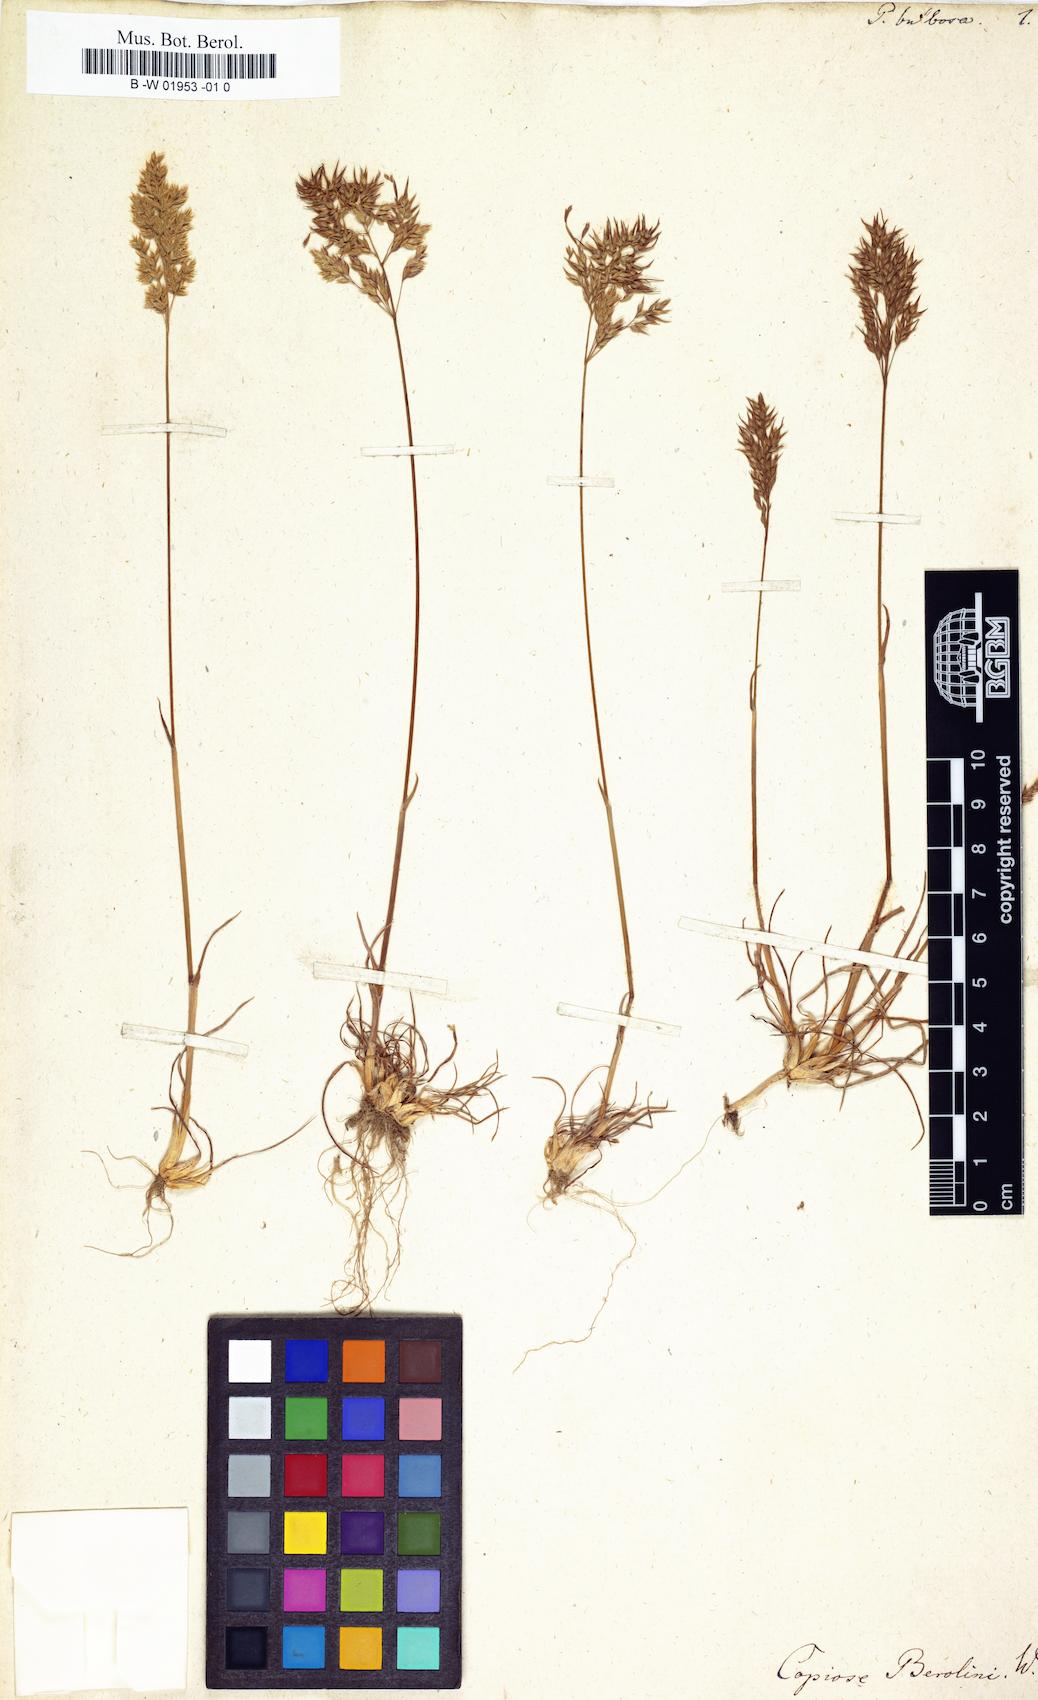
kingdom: Plantae
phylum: Tracheophyta
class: Liliopsida
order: Poales
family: Poaceae
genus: Poa
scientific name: Poa bulbosa
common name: Bulbous bluegrass
